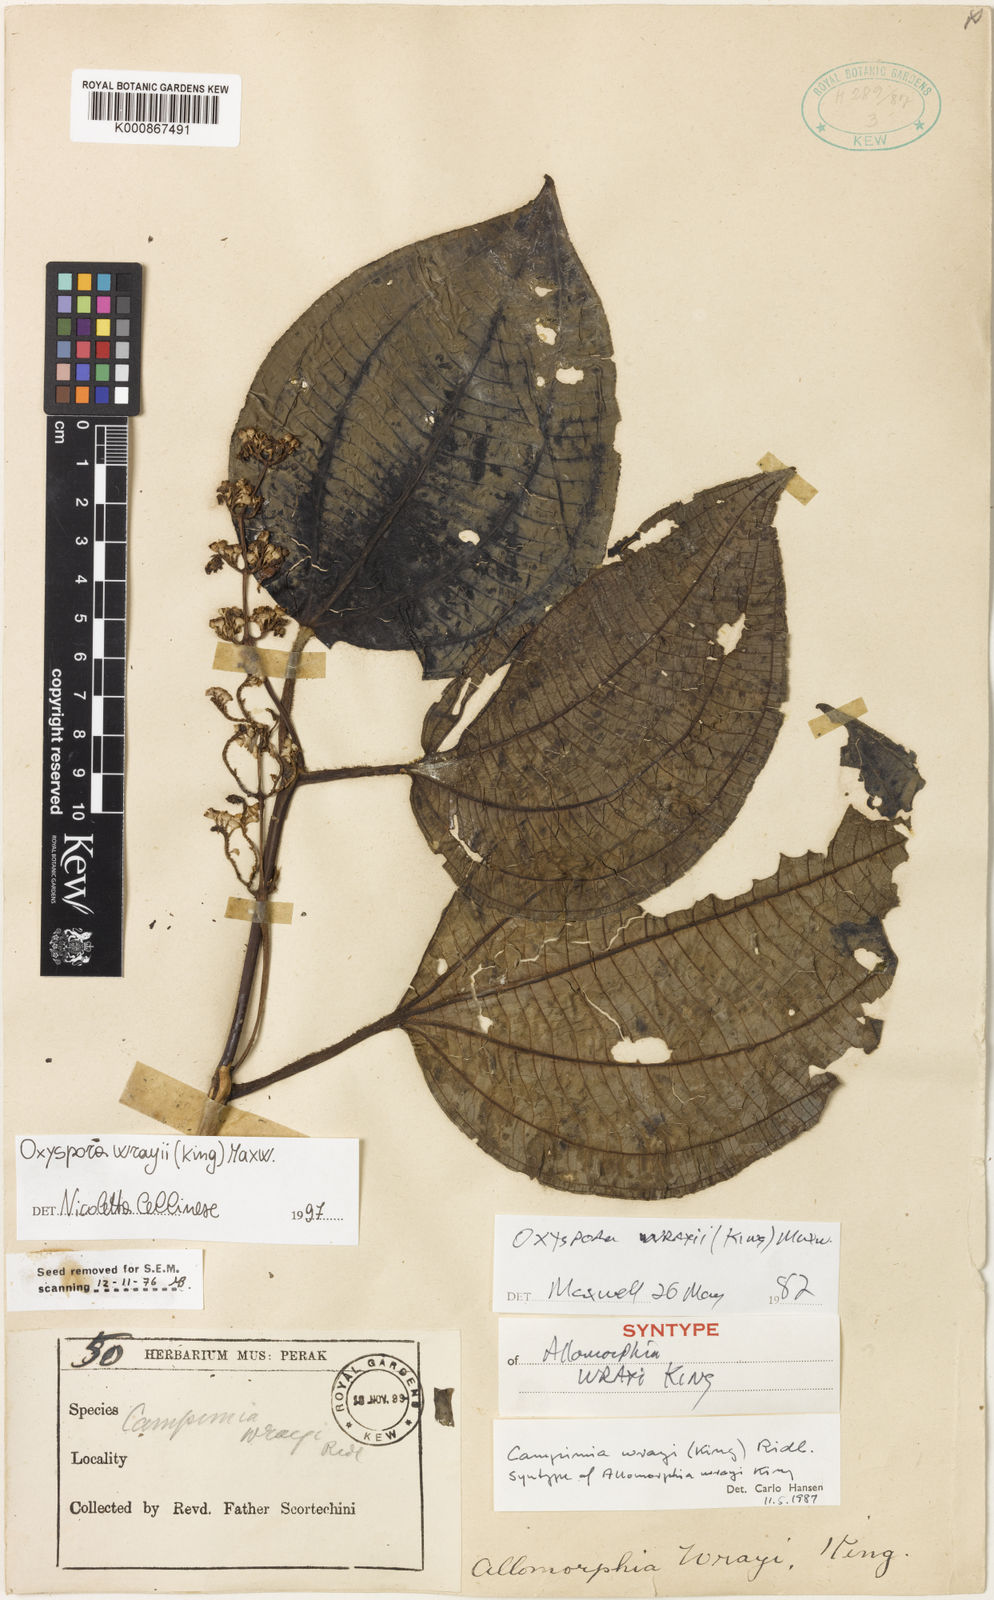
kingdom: Plantae
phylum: Tracheophyta
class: Magnoliopsida
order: Myrtales
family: Melastomataceae
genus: Campimia
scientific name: Campimia wrayi
